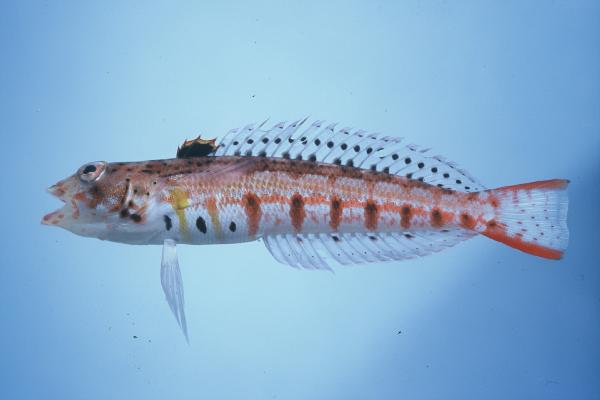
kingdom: Animalia
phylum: Chordata
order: Perciformes
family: Pinguipedidae
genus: Parapercis
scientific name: Parapercis punctulata
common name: Spotted sandperch
